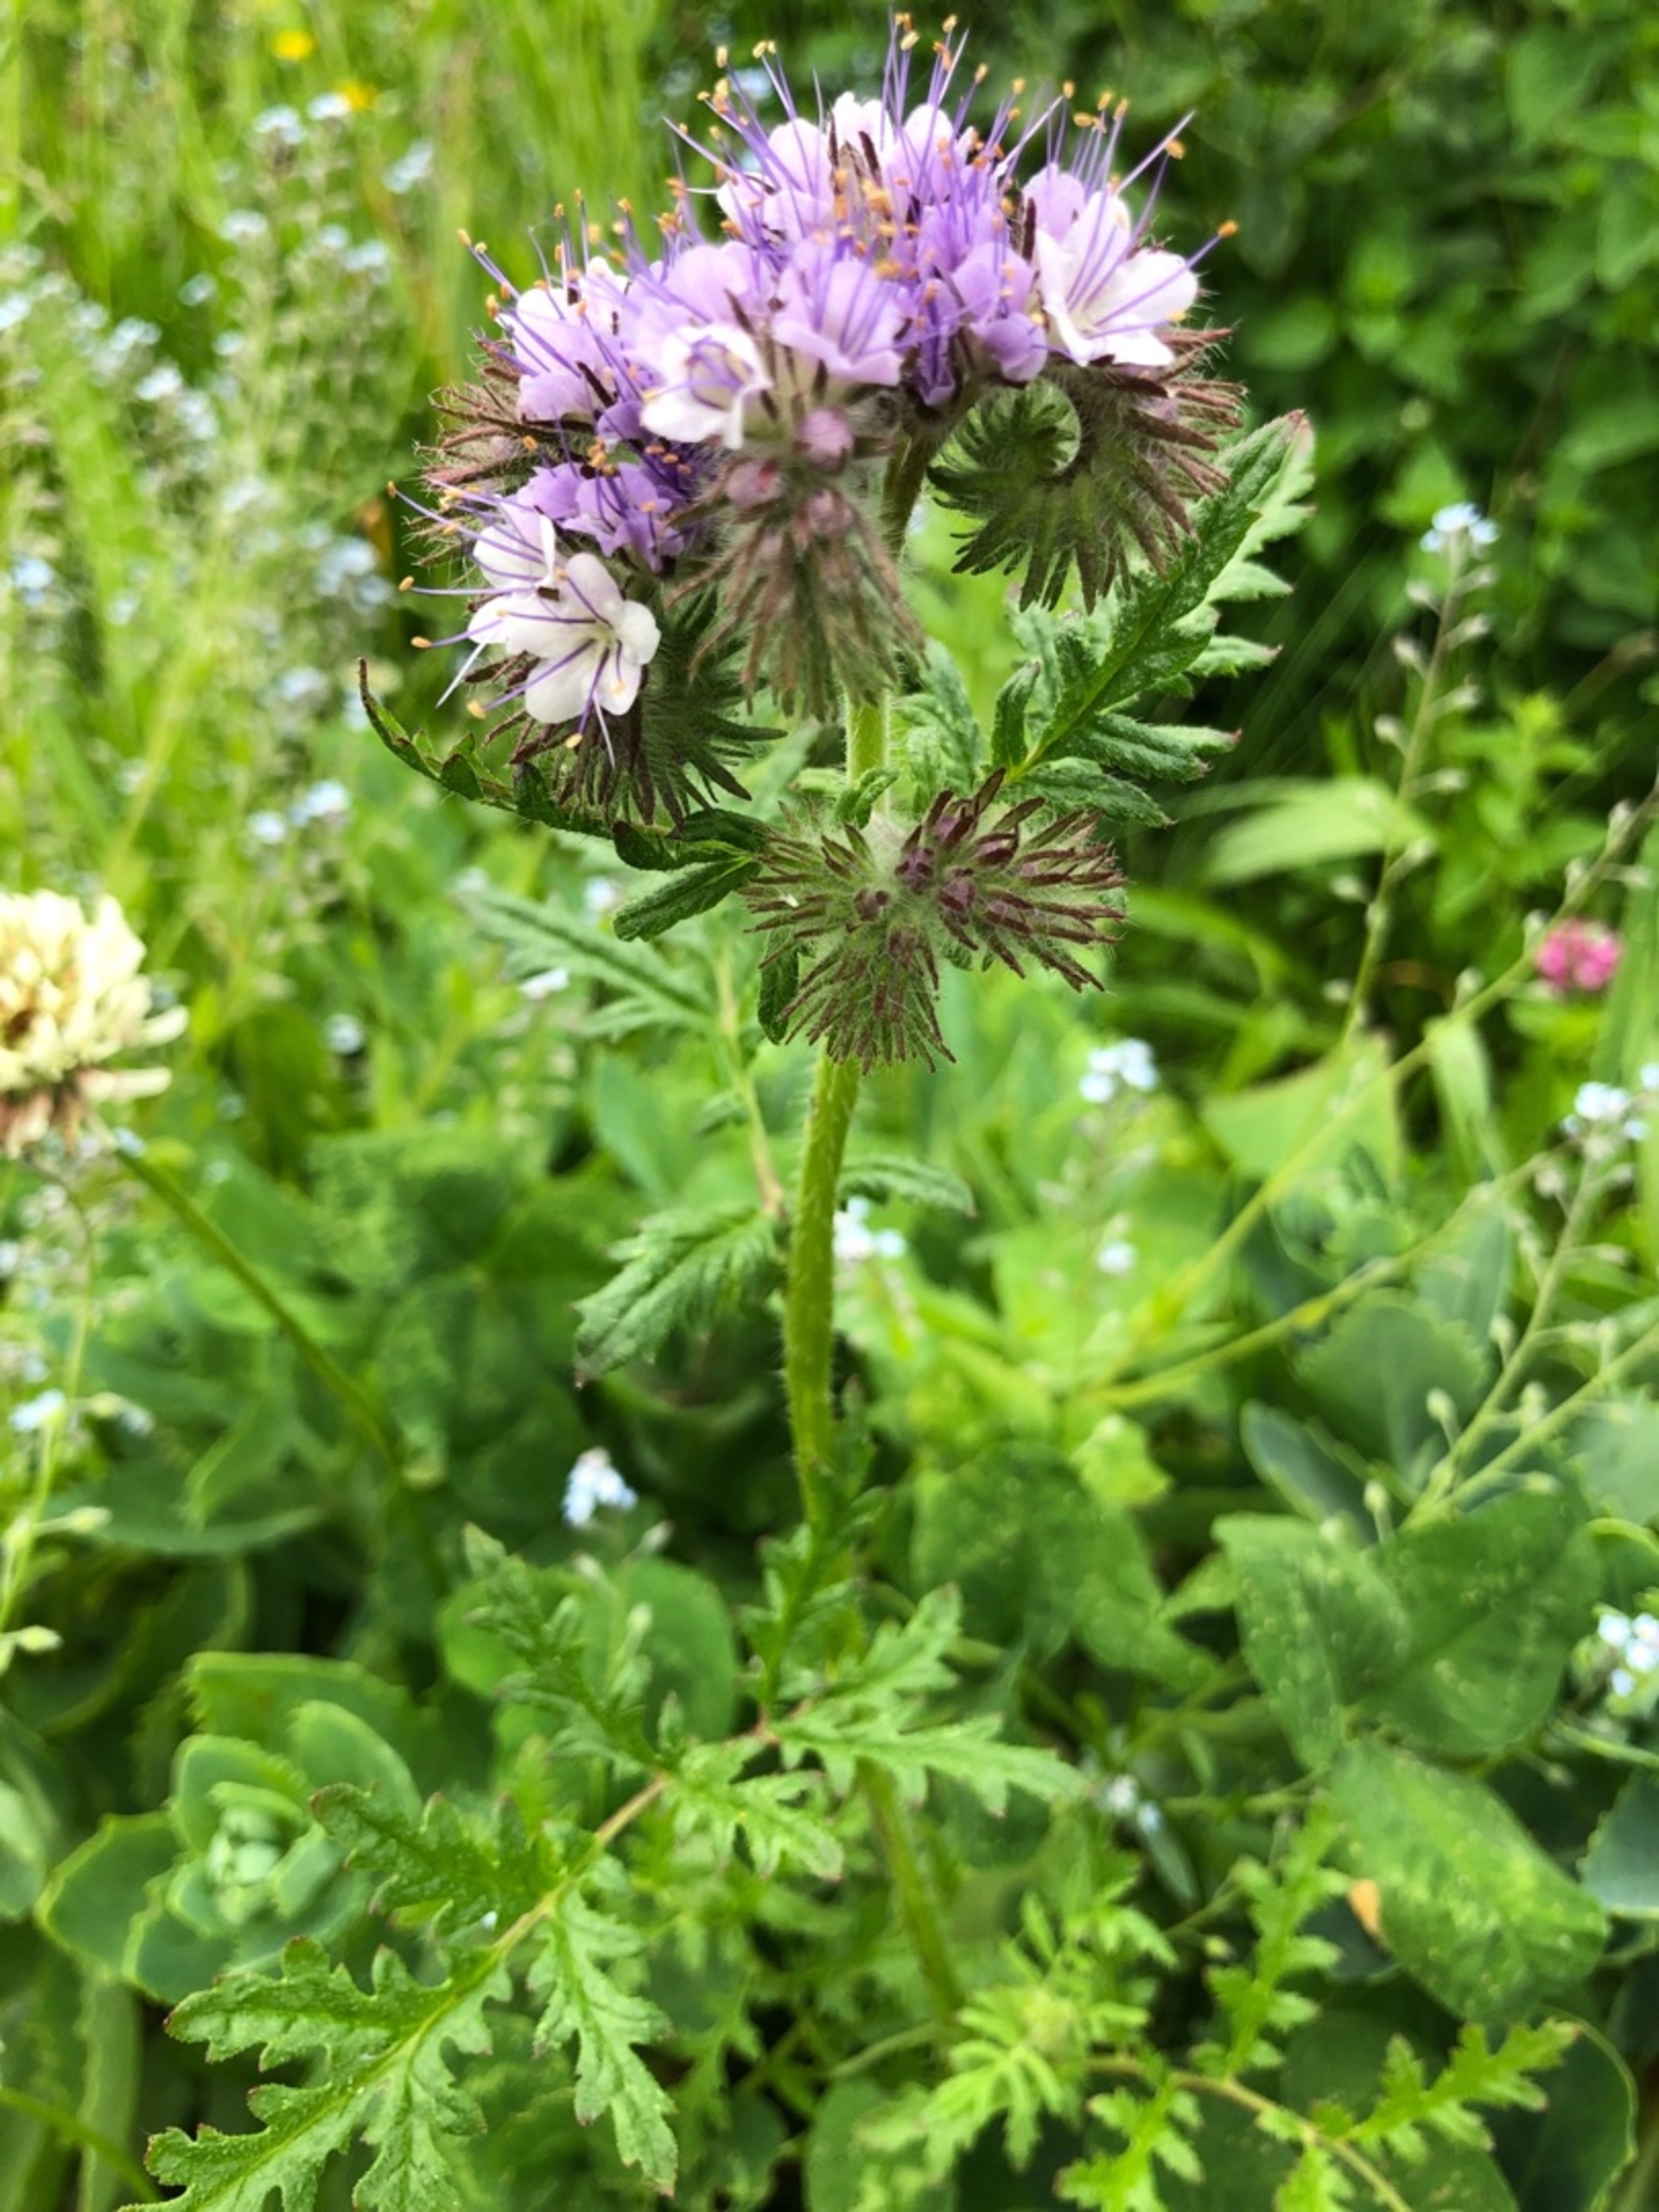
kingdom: Plantae
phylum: Tracheophyta
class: Magnoliopsida
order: Boraginales
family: Hydrophyllaceae
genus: Phacelia
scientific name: Phacelia tanacetifolia
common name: Honningurt
